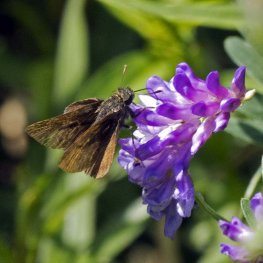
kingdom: Animalia
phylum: Arthropoda
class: Insecta
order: Lepidoptera
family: Hesperiidae
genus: Euphyes
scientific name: Euphyes vestris
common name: Dun Skipper
